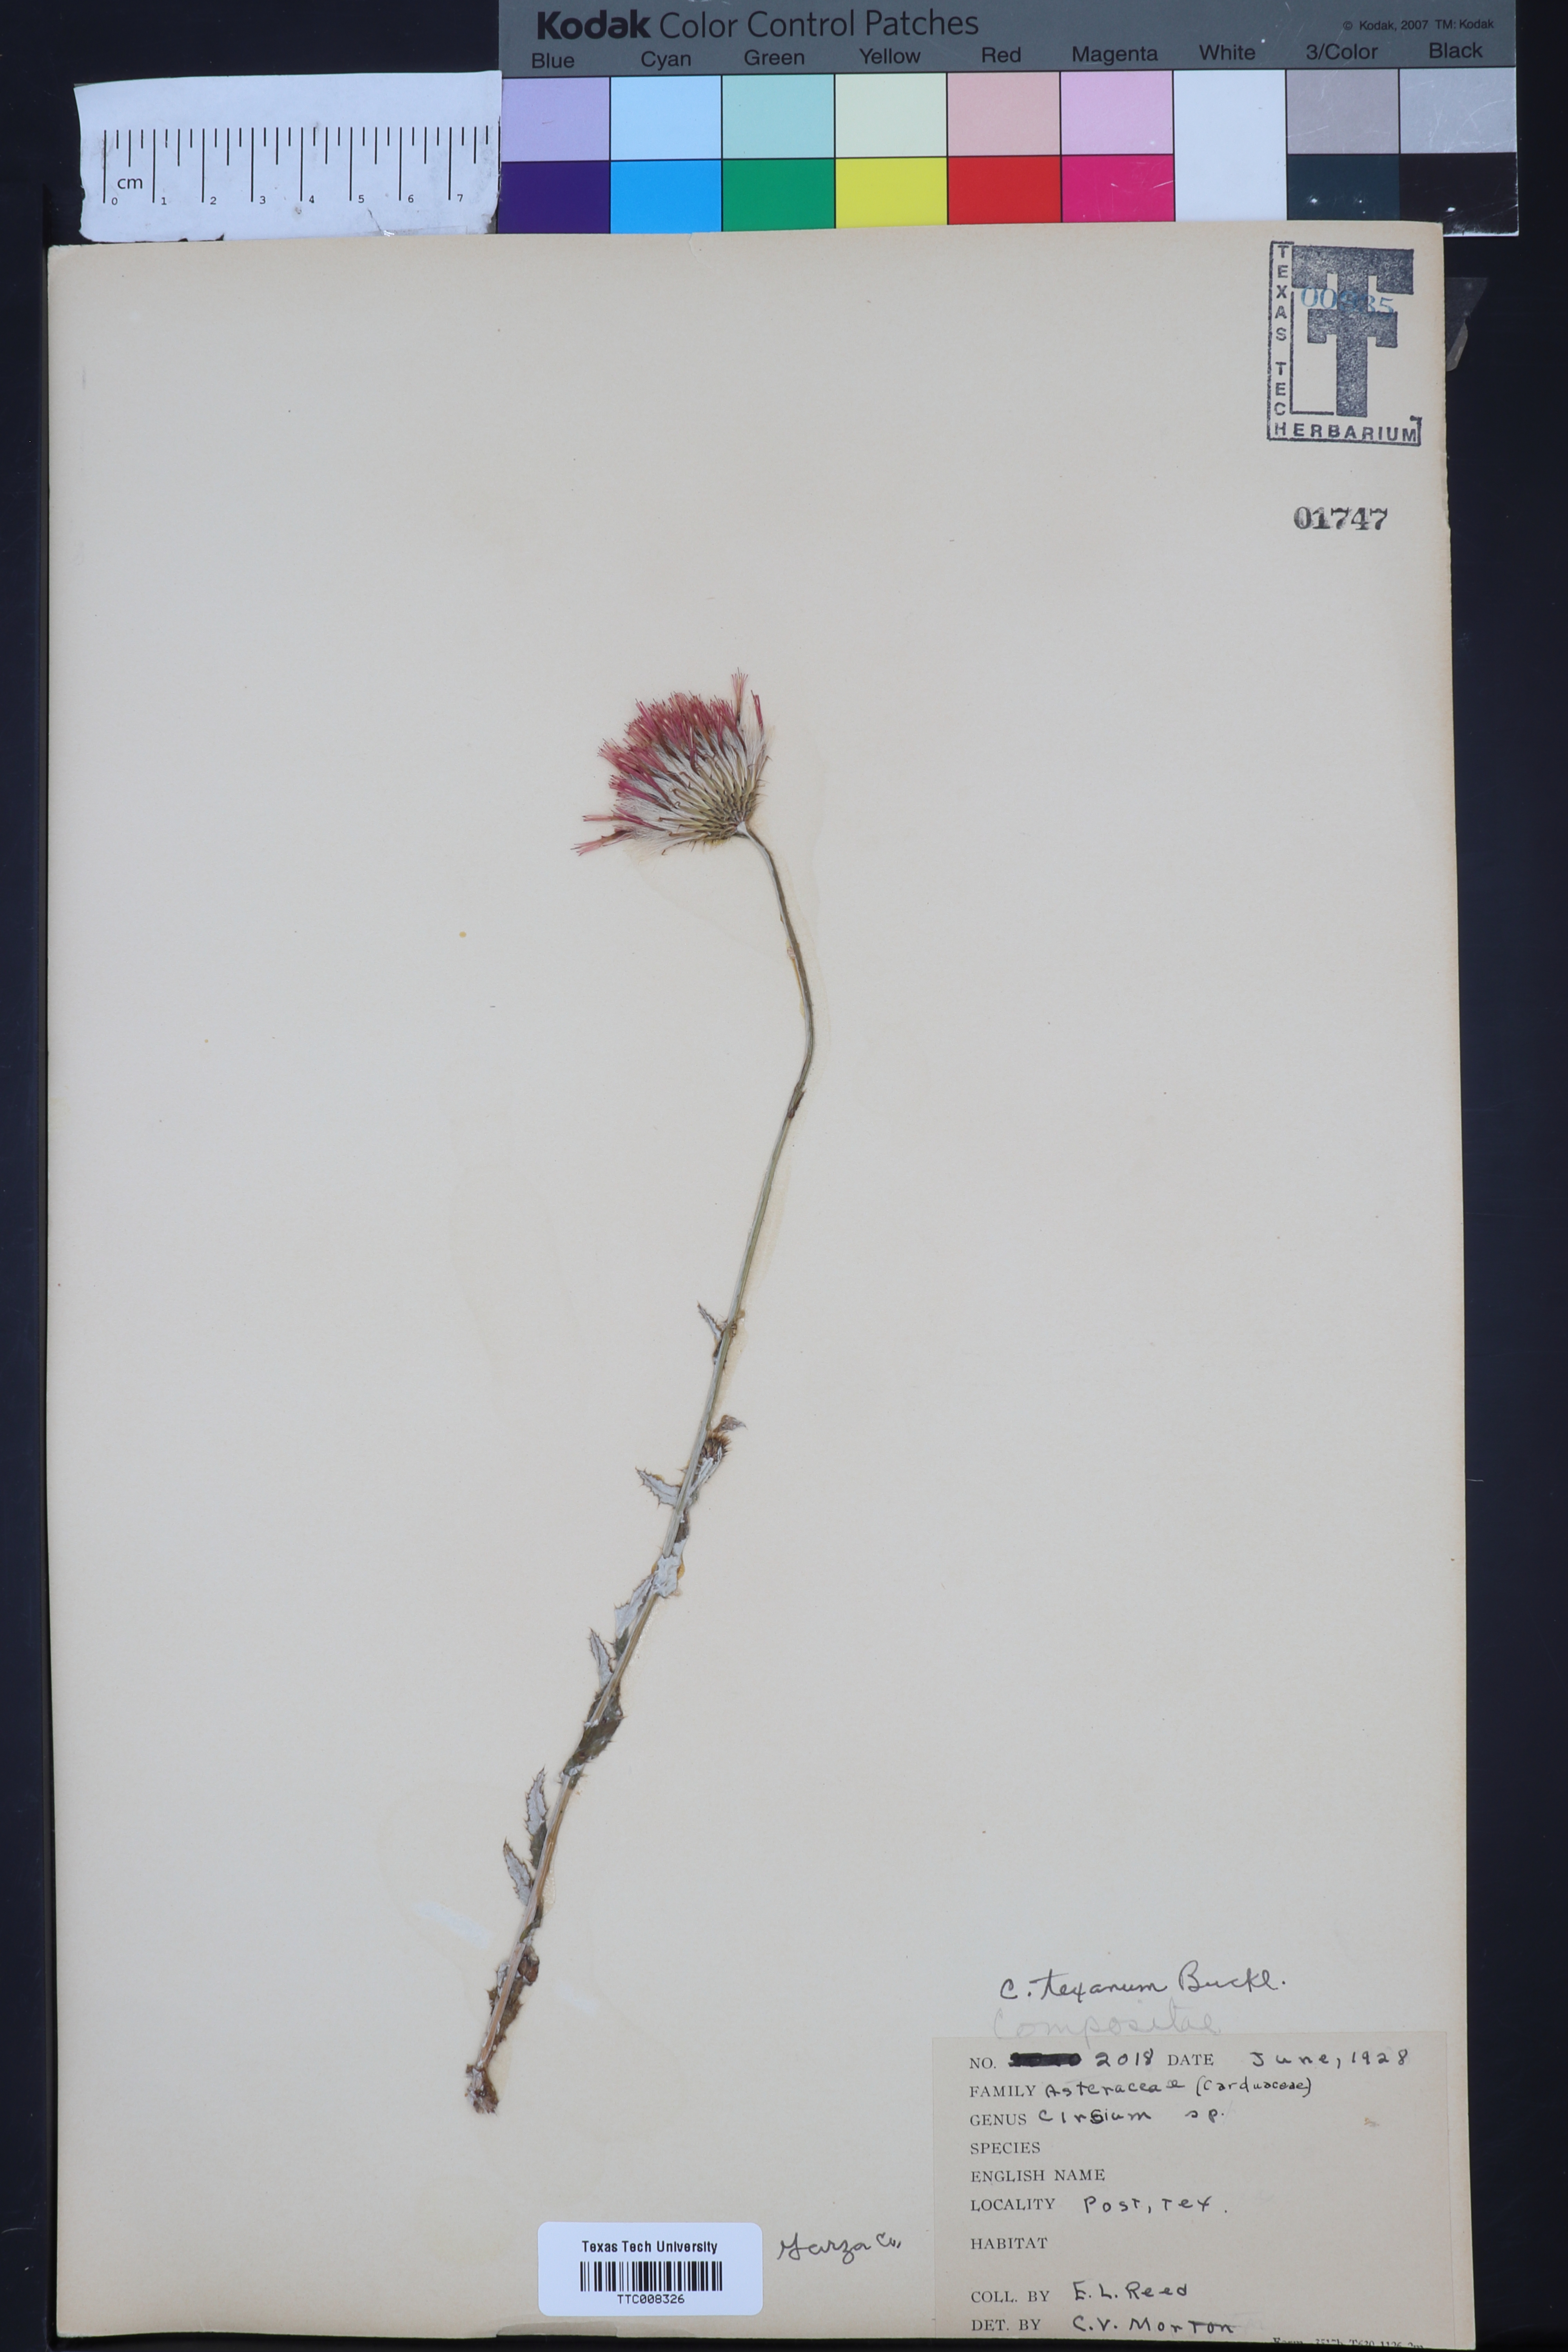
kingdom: Plantae
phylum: Tracheophyta
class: Magnoliopsida
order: Asterales
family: Asteraceae
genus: Cirsium
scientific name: Cirsium texanum
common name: Texas purple thistle
